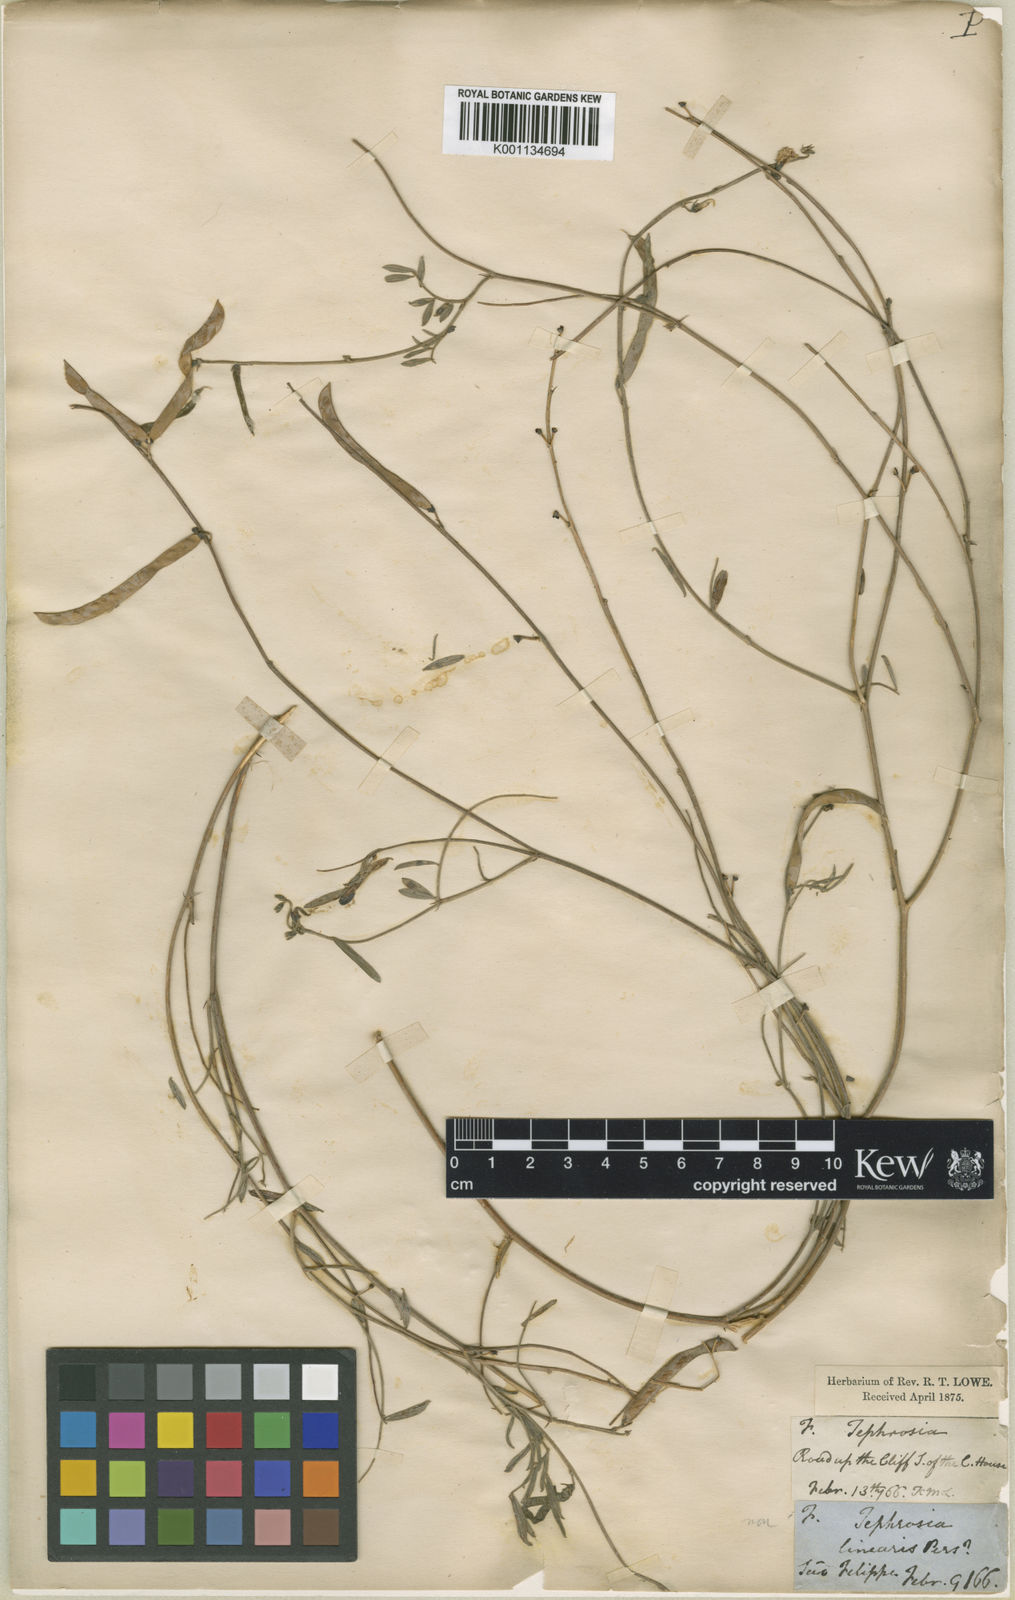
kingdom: Plantae
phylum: Tracheophyta
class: Magnoliopsida
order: Fabales
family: Fabaceae
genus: Tephrosia
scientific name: Tephrosia bracteolata
